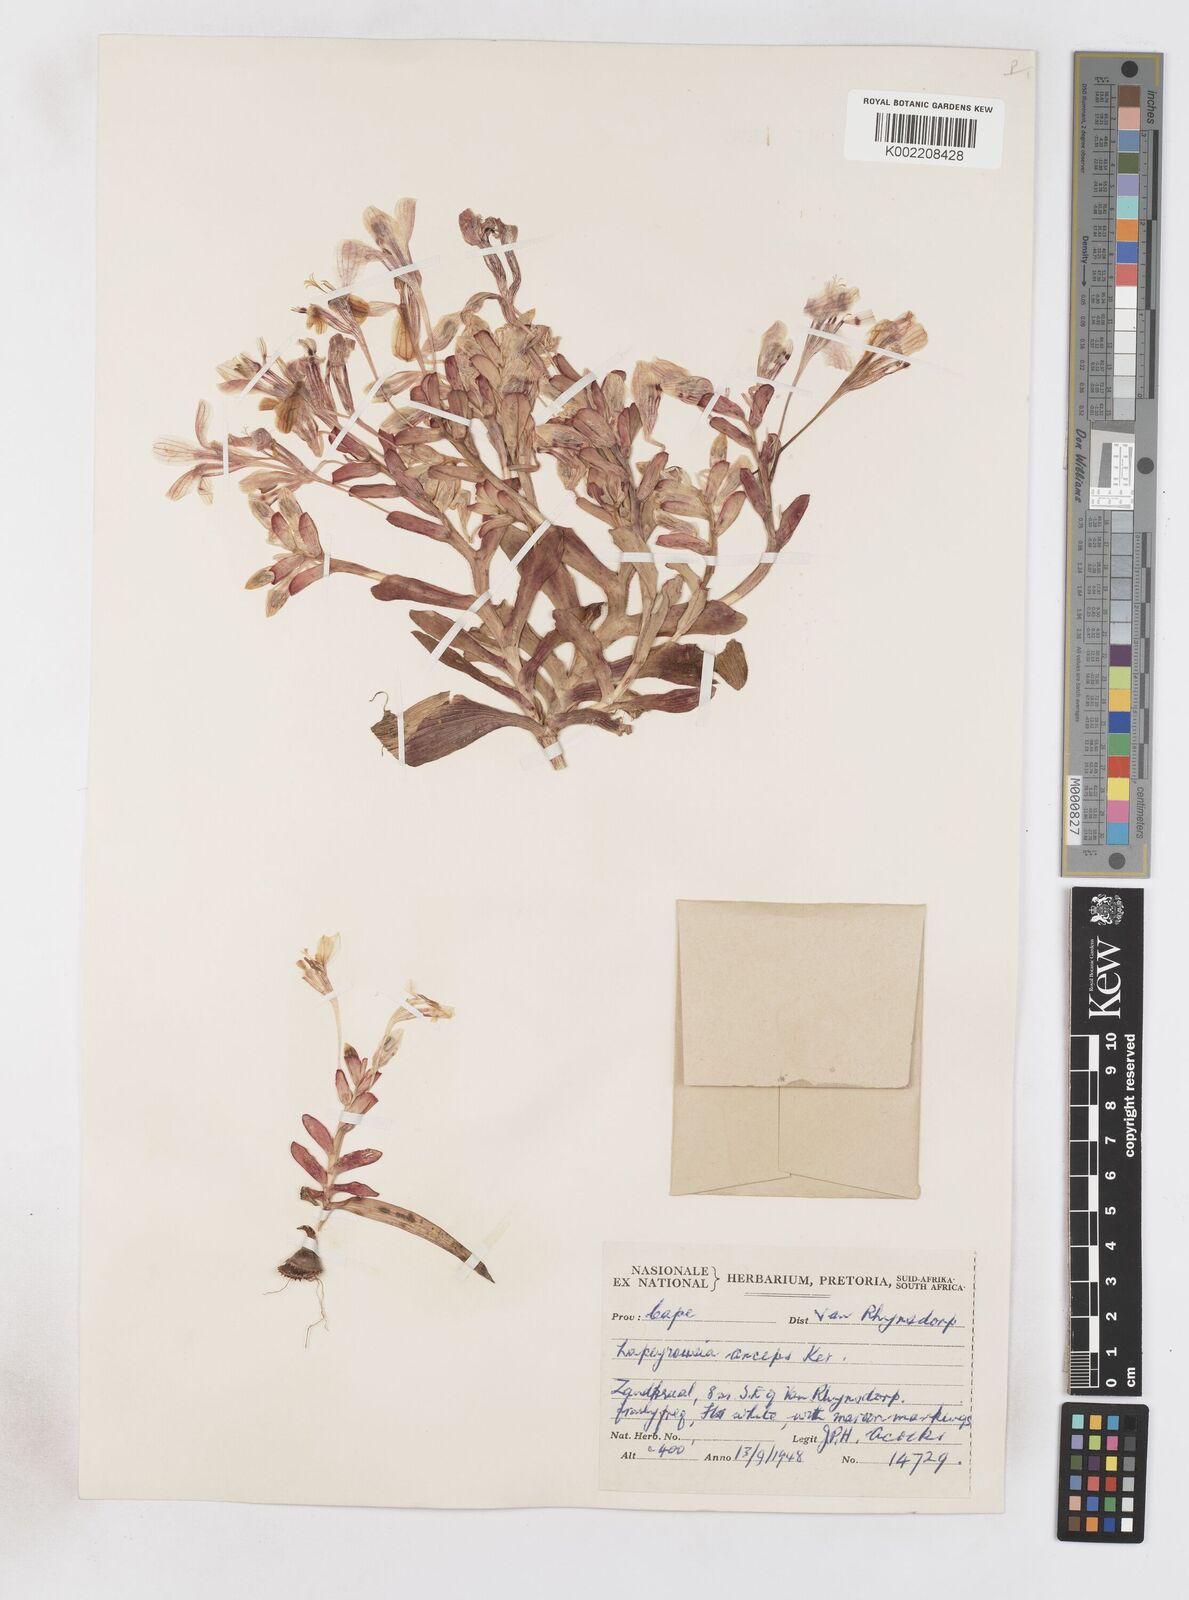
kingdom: Plantae
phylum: Tracheophyta
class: Liliopsida
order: Asparagales
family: Iridaceae
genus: Lapeirousia
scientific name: Lapeirousia fabricii
